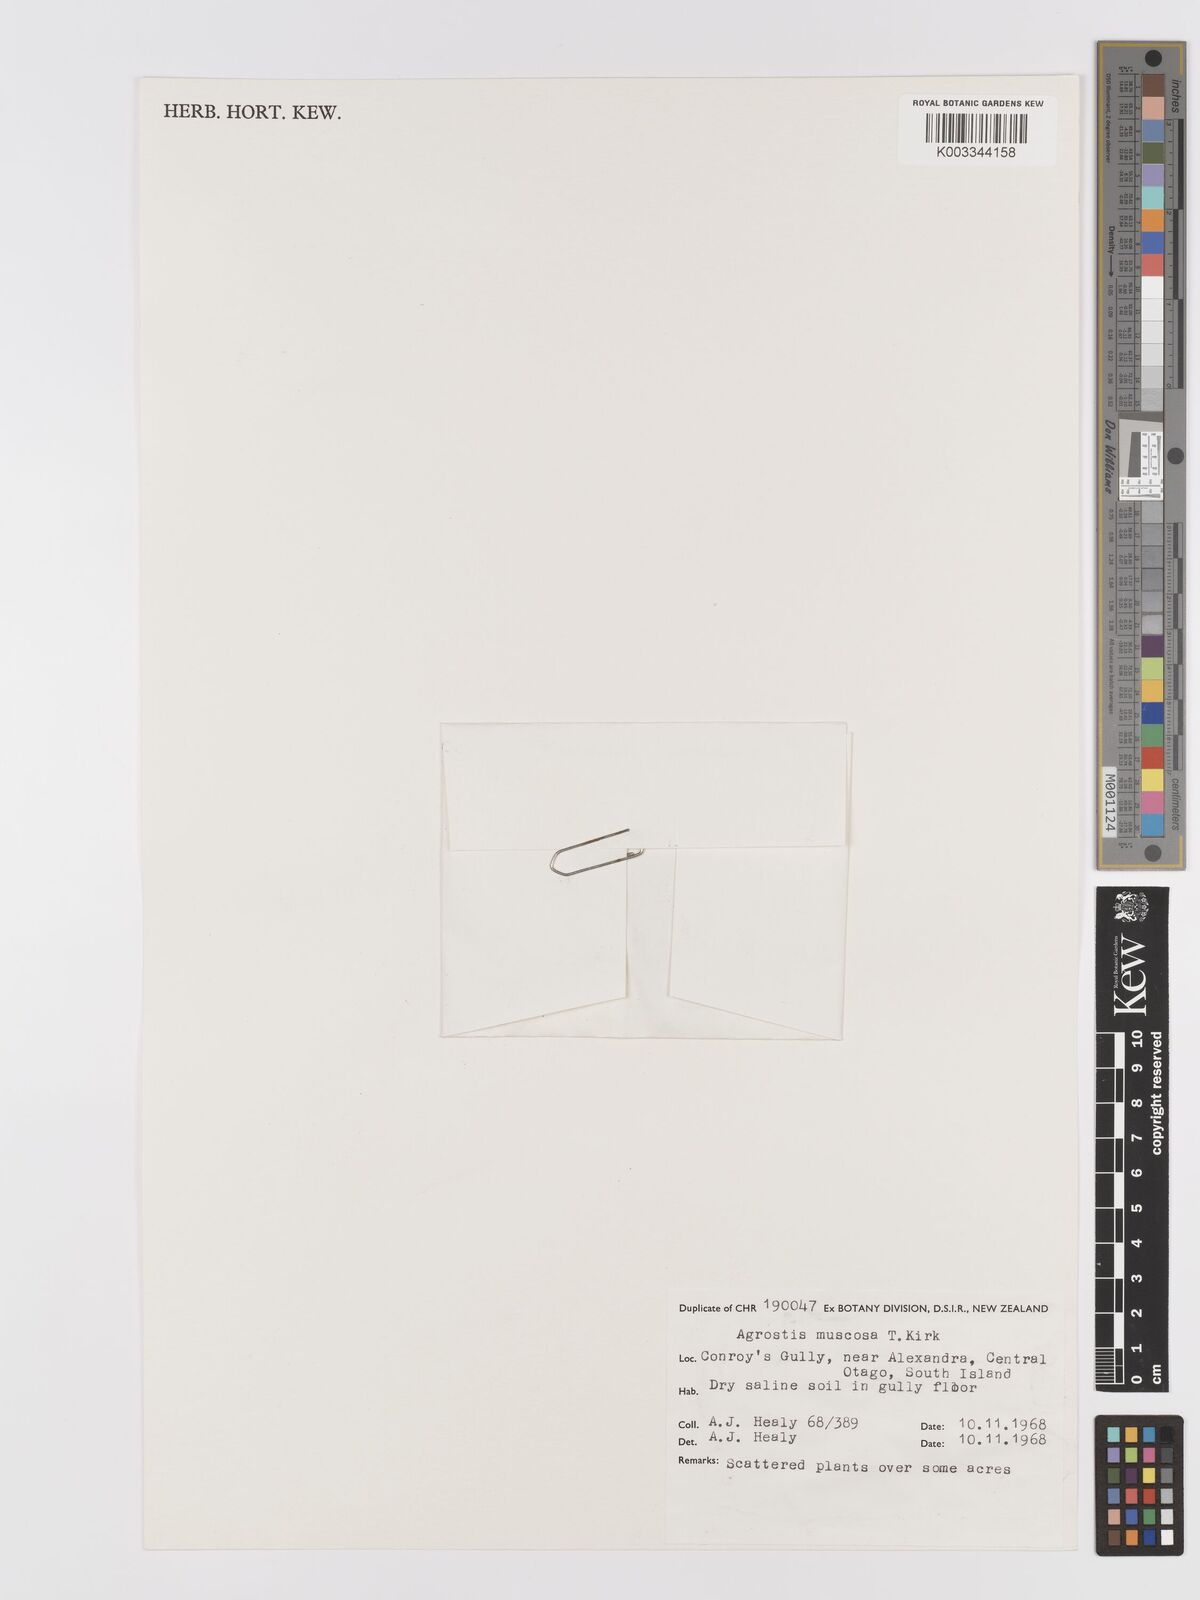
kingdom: Plantae
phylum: Tracheophyta
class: Liliopsida
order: Poales
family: Poaceae
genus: Agrostis
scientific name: Agrostis muscosa
